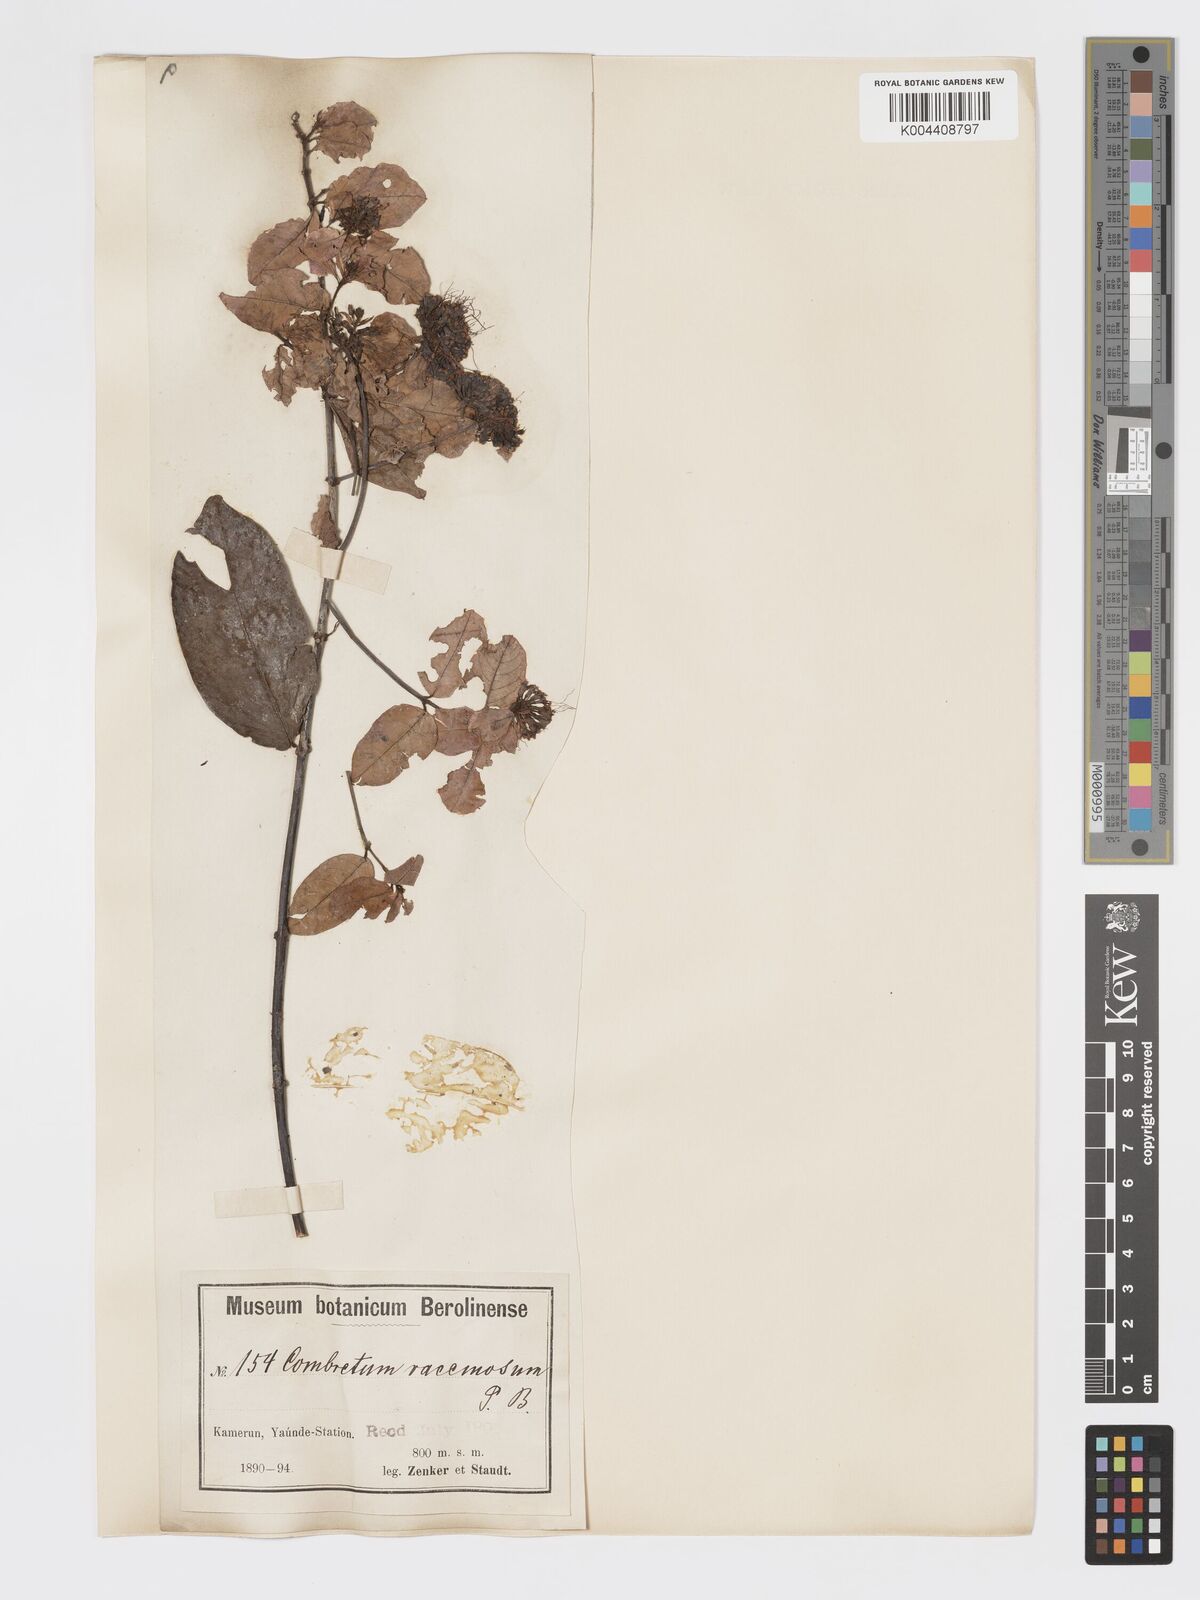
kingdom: Plantae
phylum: Tracheophyta
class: Magnoliopsida
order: Myrtales
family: Combretaceae
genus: Combretum
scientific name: Combretum racemosum
